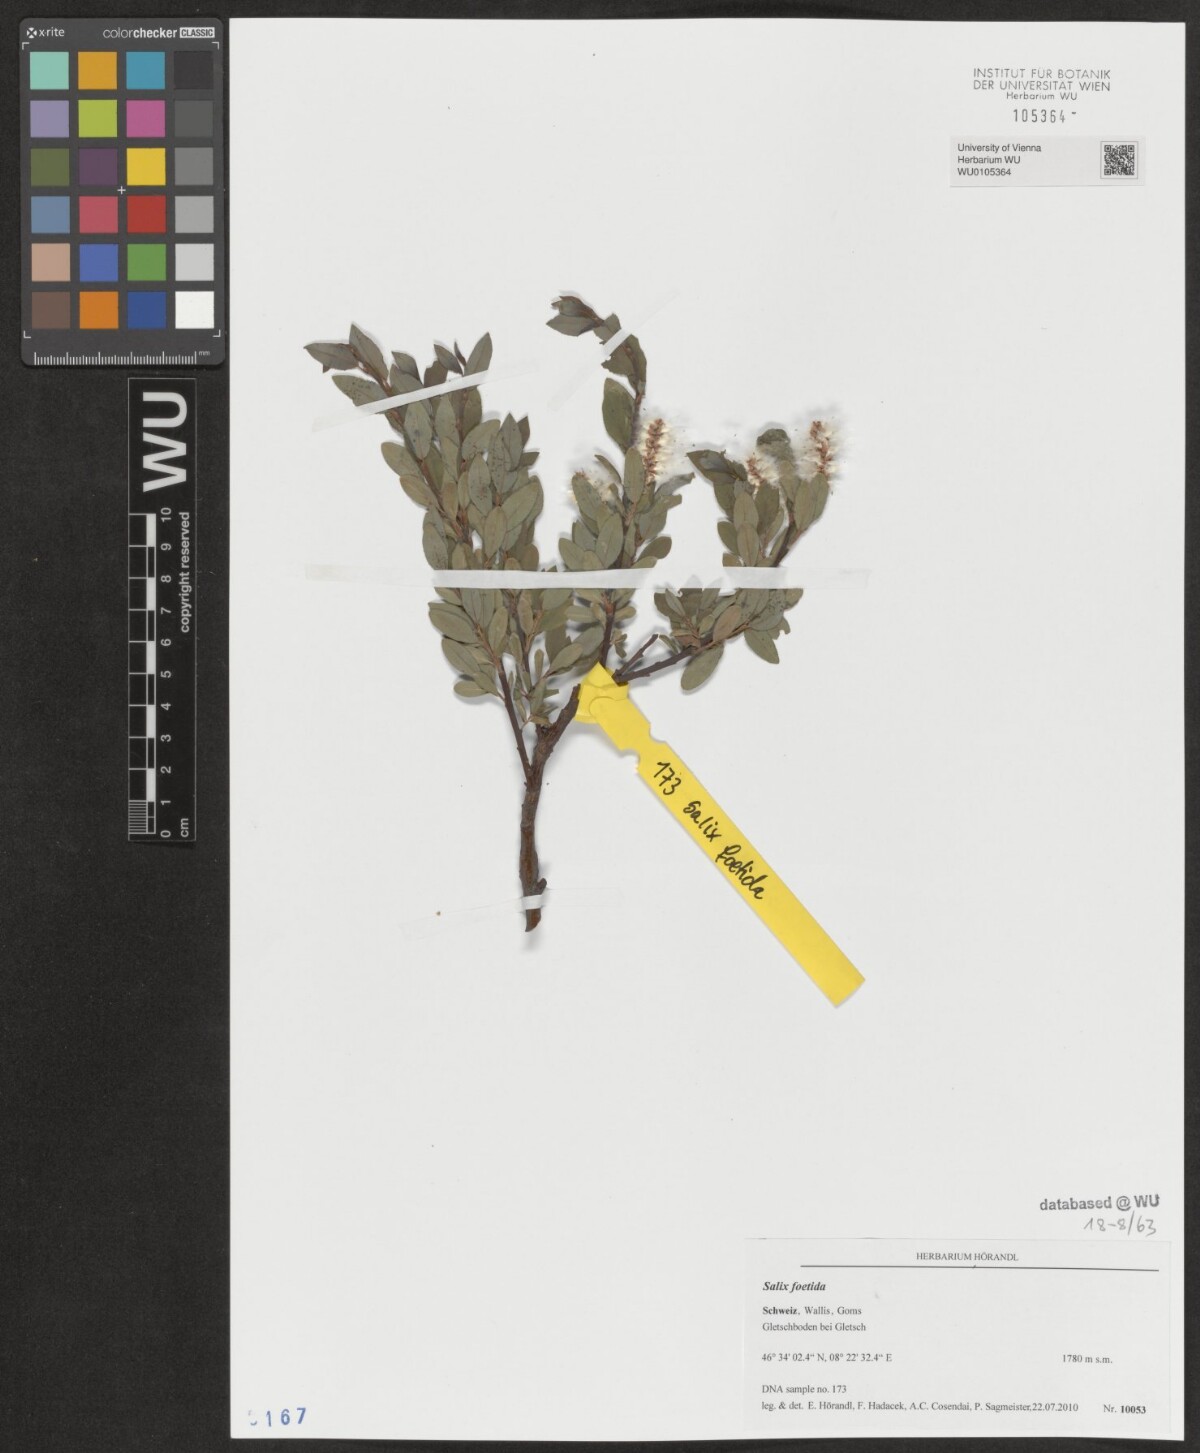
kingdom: Plantae
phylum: Tracheophyta
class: Magnoliopsida
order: Malpighiales
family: Salicaceae
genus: Salix
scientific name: Salix foetida
